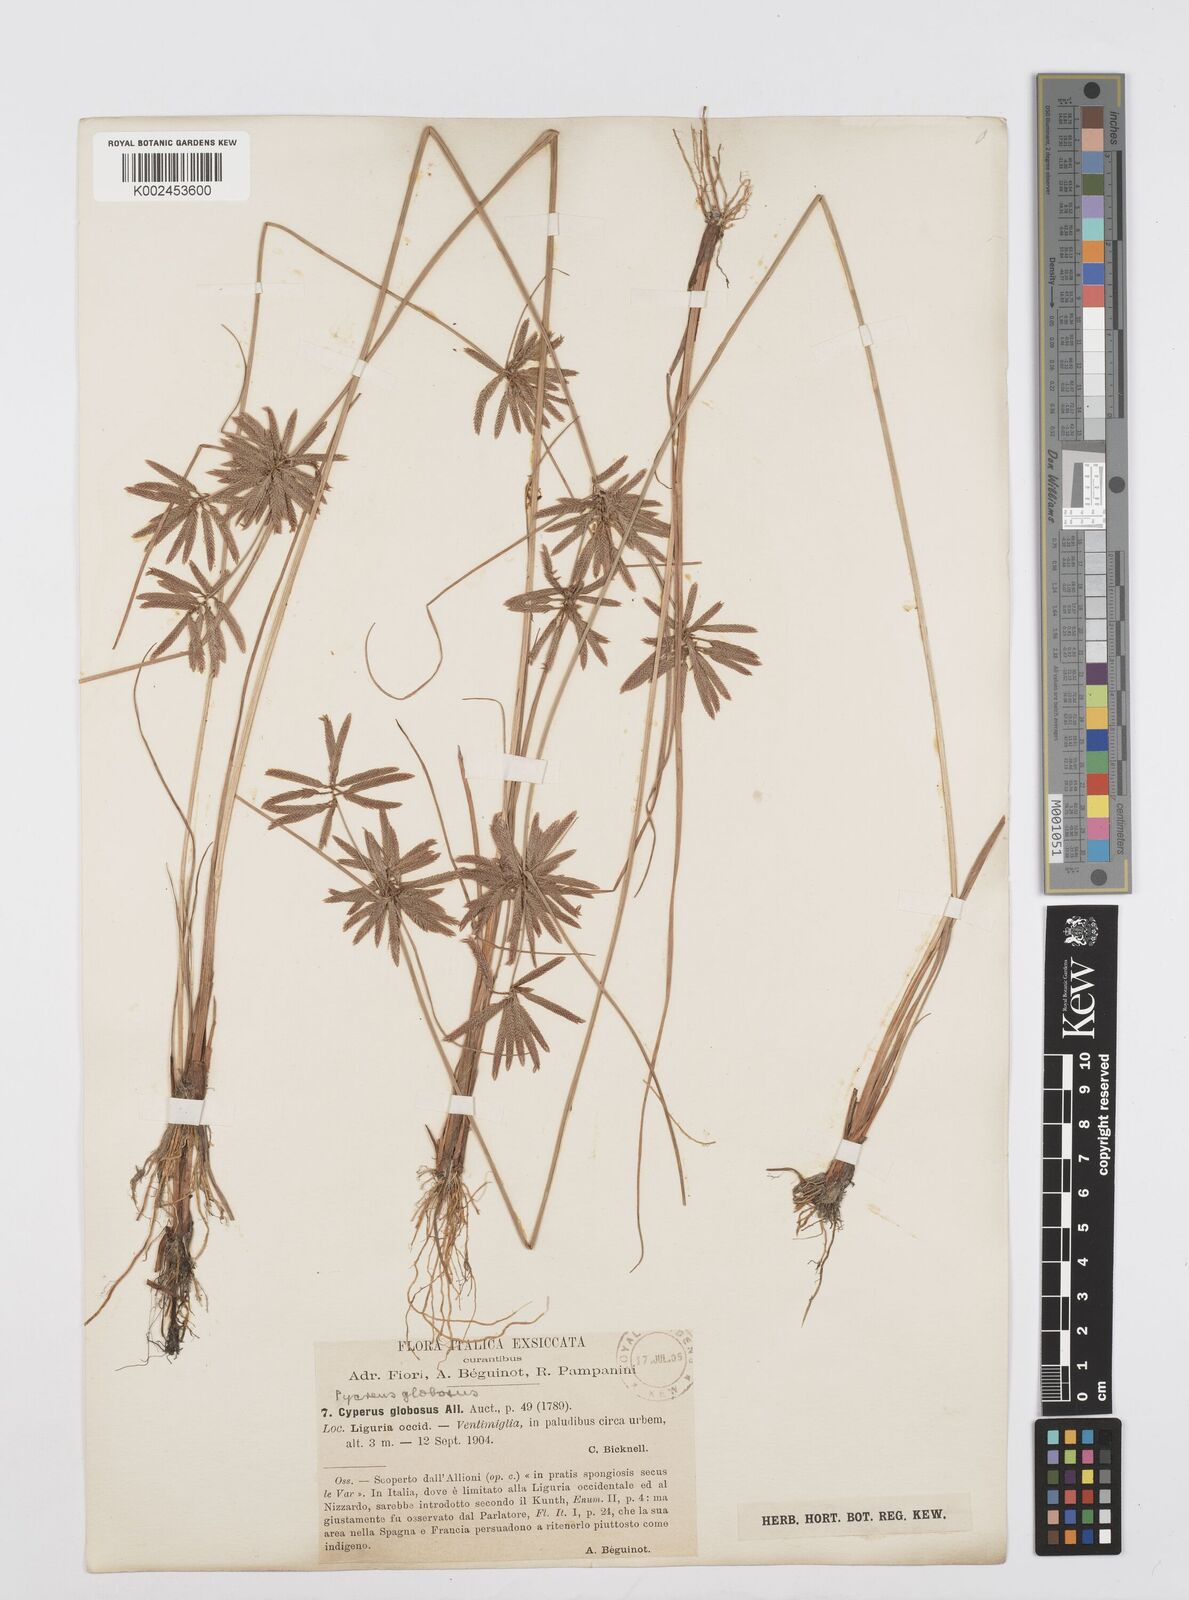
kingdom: Plantae
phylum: Tracheophyta
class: Liliopsida
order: Poales
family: Cyperaceae
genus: Cyperus
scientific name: Cyperus flavidus
